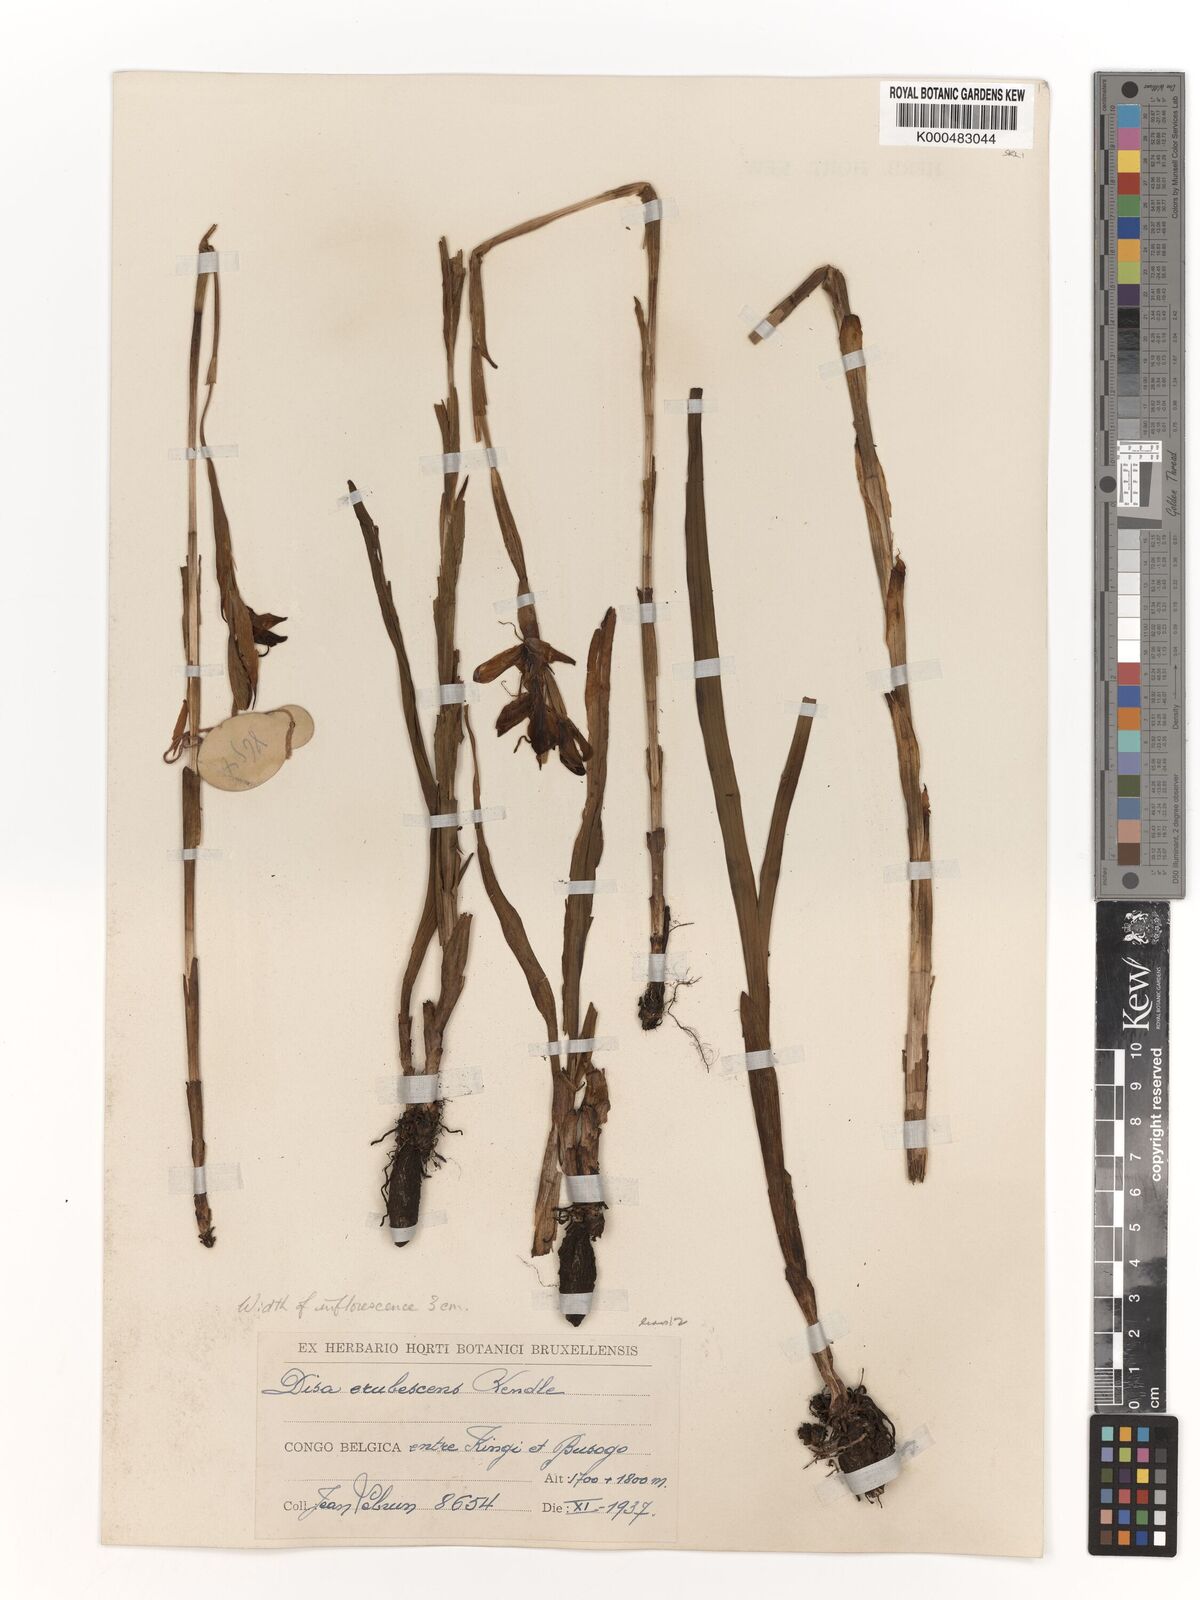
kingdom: Plantae
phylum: Tracheophyta
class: Liliopsida
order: Asparagales
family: Orchidaceae
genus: Disa
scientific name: Disa erubescens
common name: The rose disa
